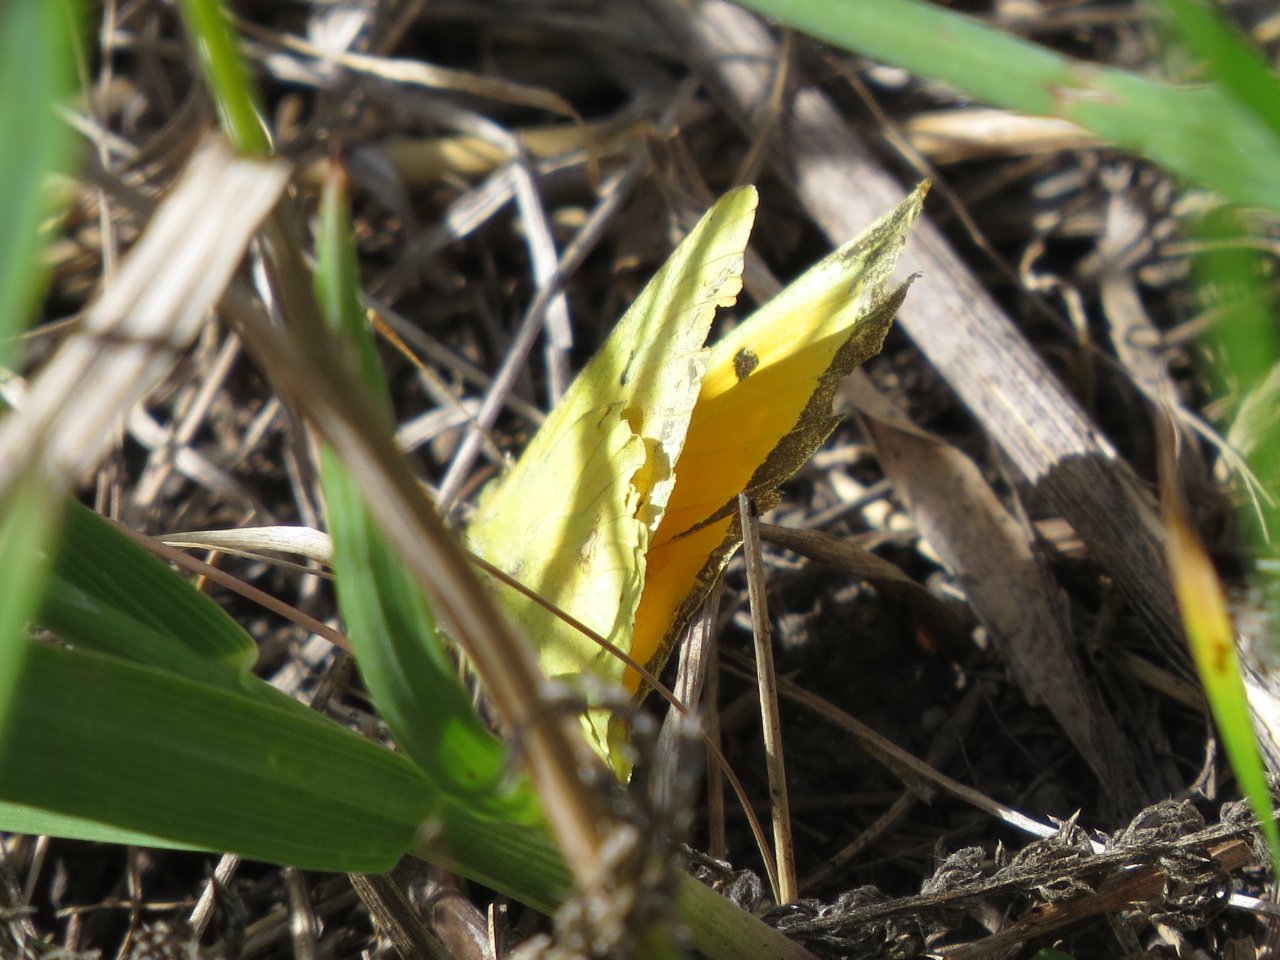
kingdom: Animalia
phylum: Arthropoda
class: Insecta
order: Lepidoptera
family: Pieridae
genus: Colias
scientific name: Colias eurytheme
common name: Orange Sulphur
